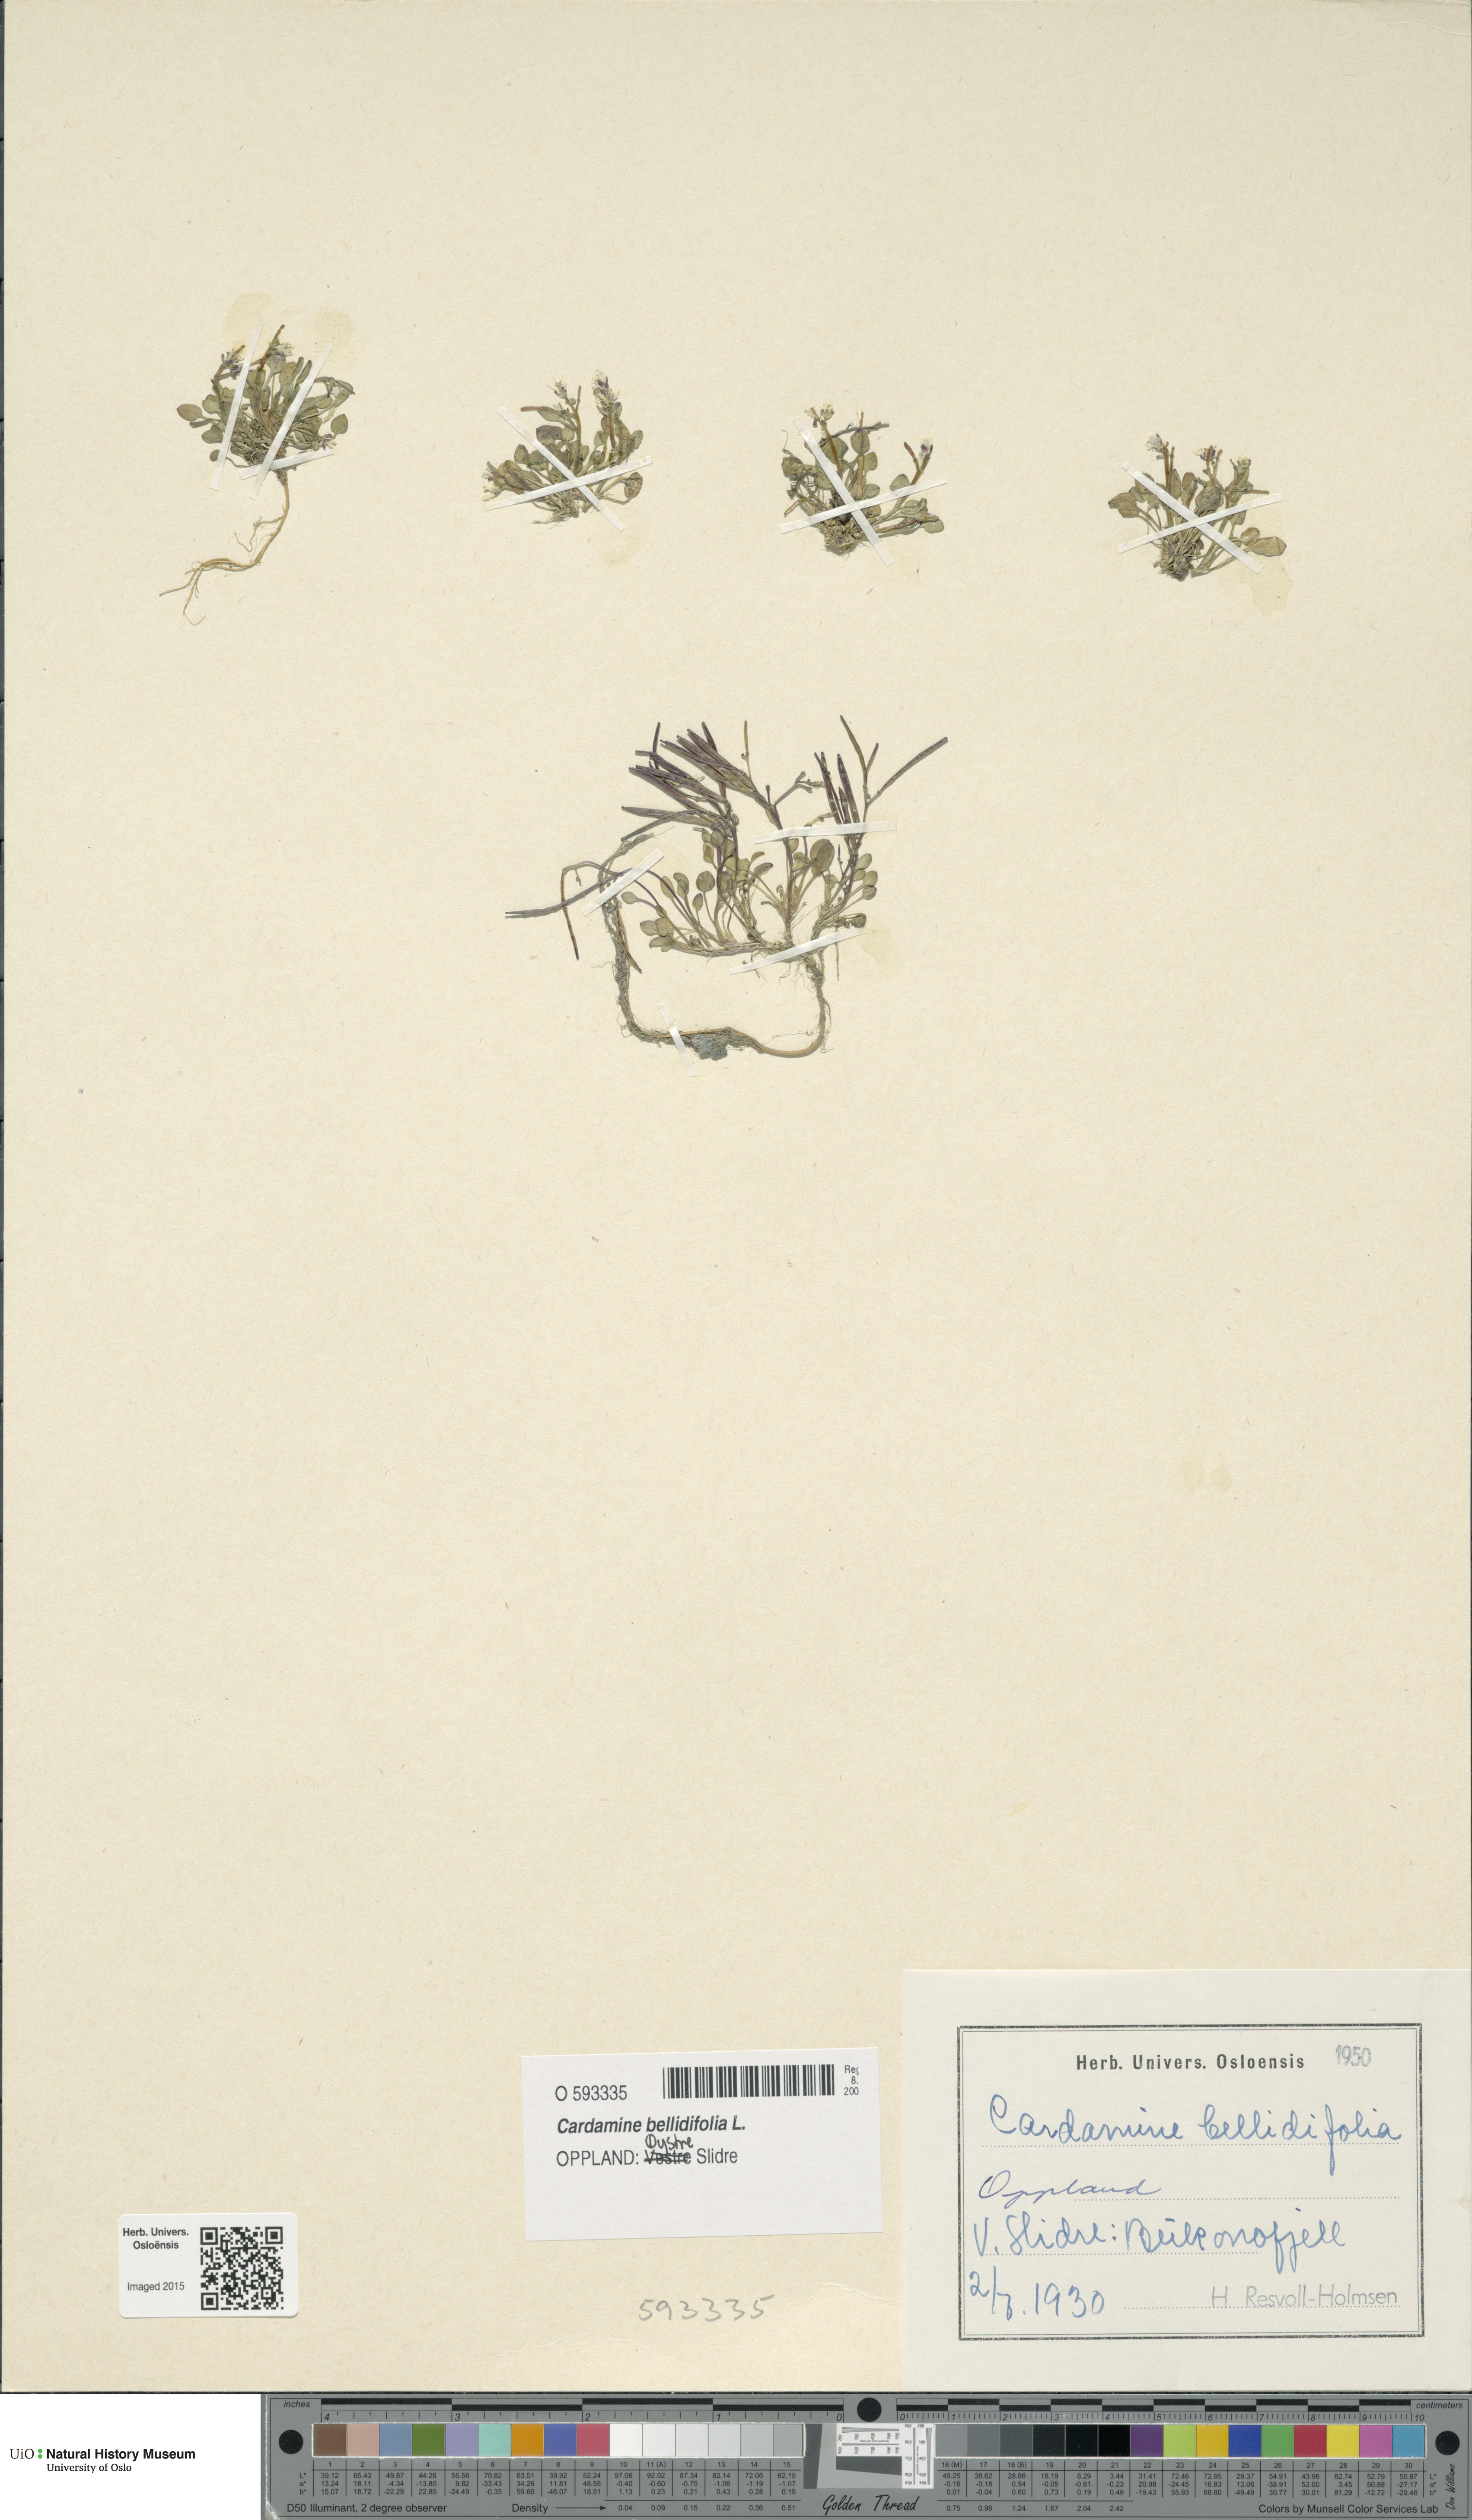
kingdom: Plantae
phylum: Tracheophyta
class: Magnoliopsida
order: Brassicales
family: Brassicaceae
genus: Cardamine
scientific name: Cardamine bellidifolia
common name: Alpine bittercress
